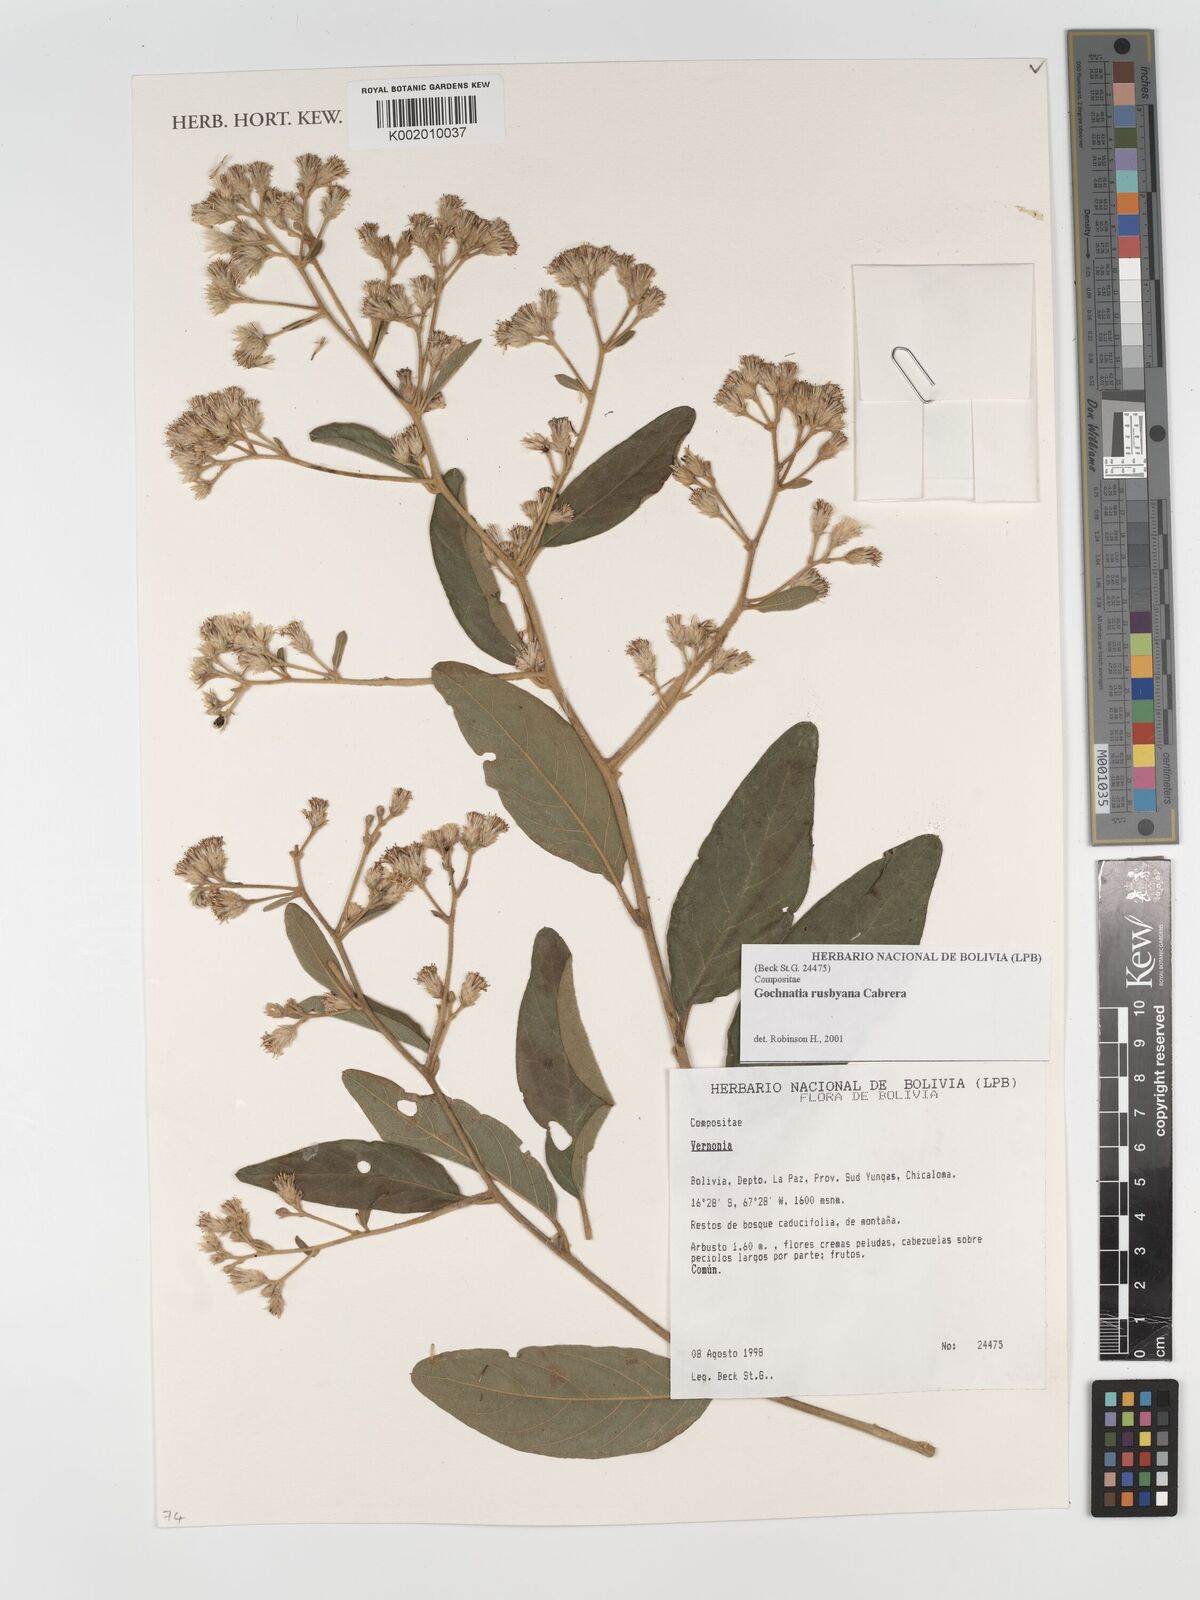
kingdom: Plantae
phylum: Tracheophyta
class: Magnoliopsida
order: Asterales
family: Asteraceae
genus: Moquiniastrum
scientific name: Moquiniastrum bolivianum
